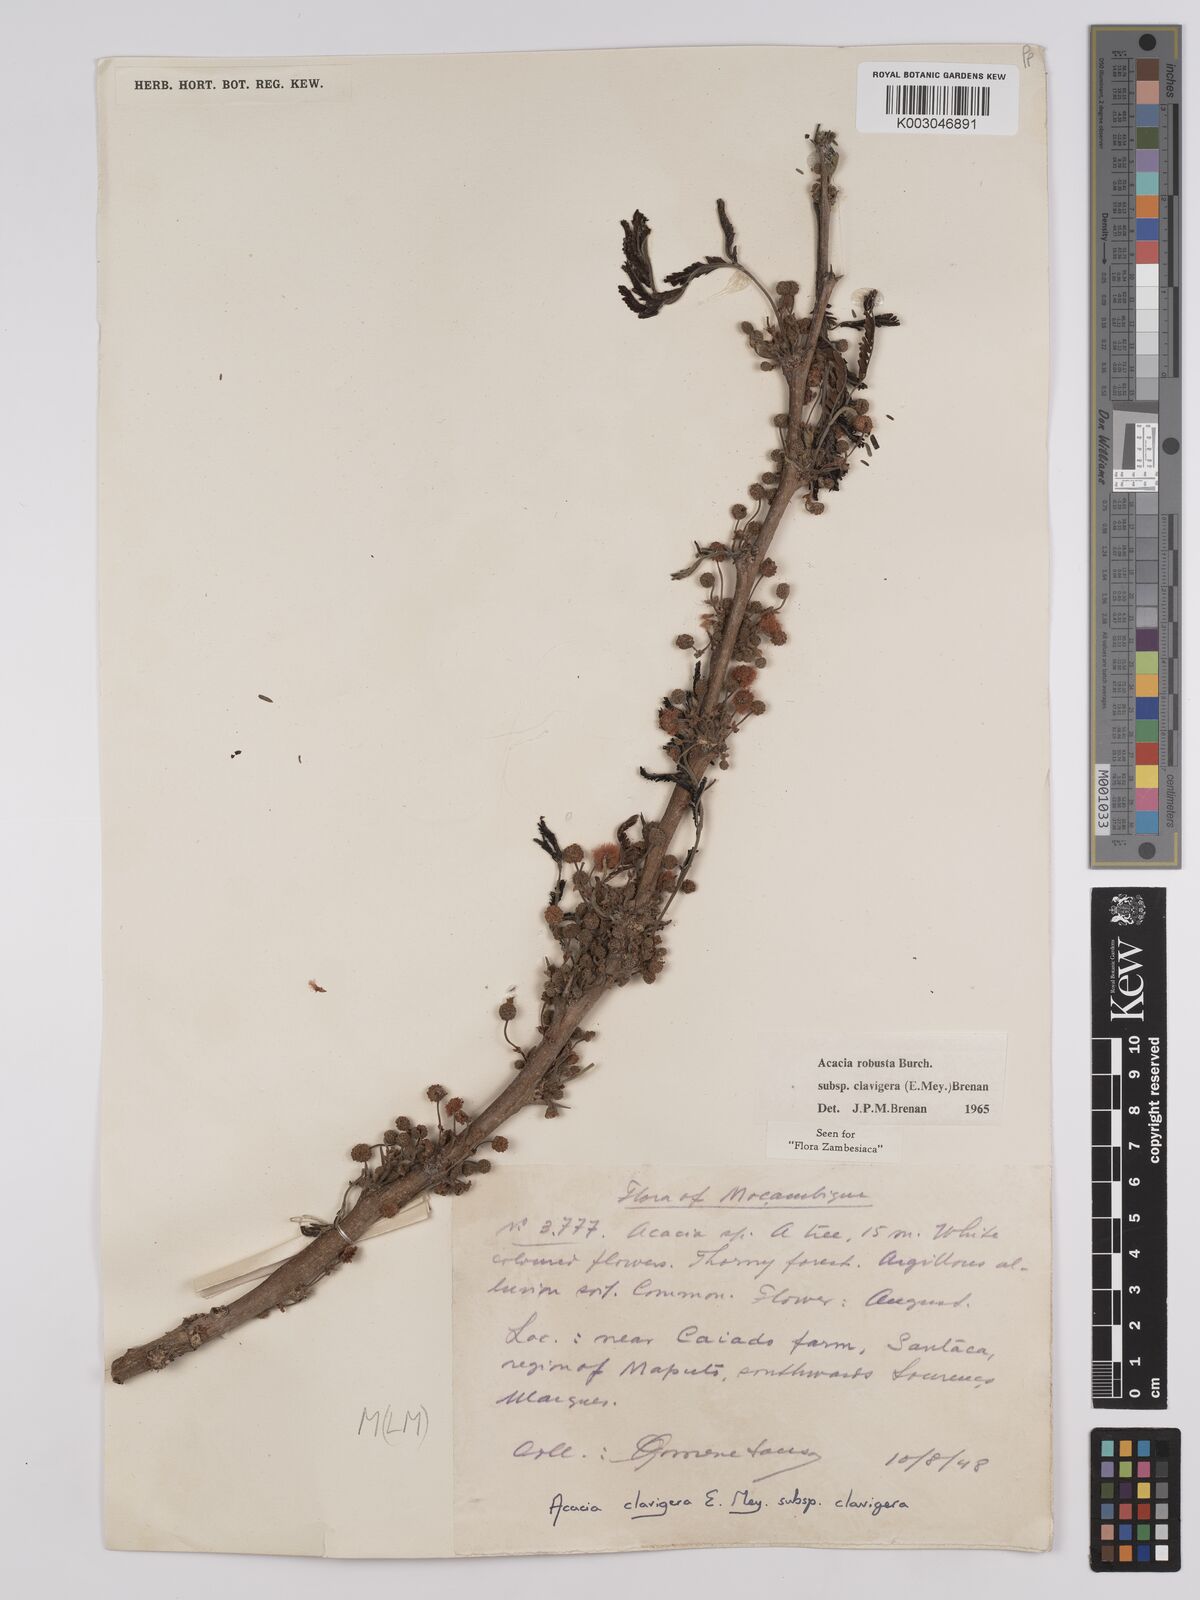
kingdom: Plantae
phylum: Tracheophyta
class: Magnoliopsida
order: Fabales
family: Fabaceae
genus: Vachellia
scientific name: Vachellia robusta
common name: Ankle thorn
